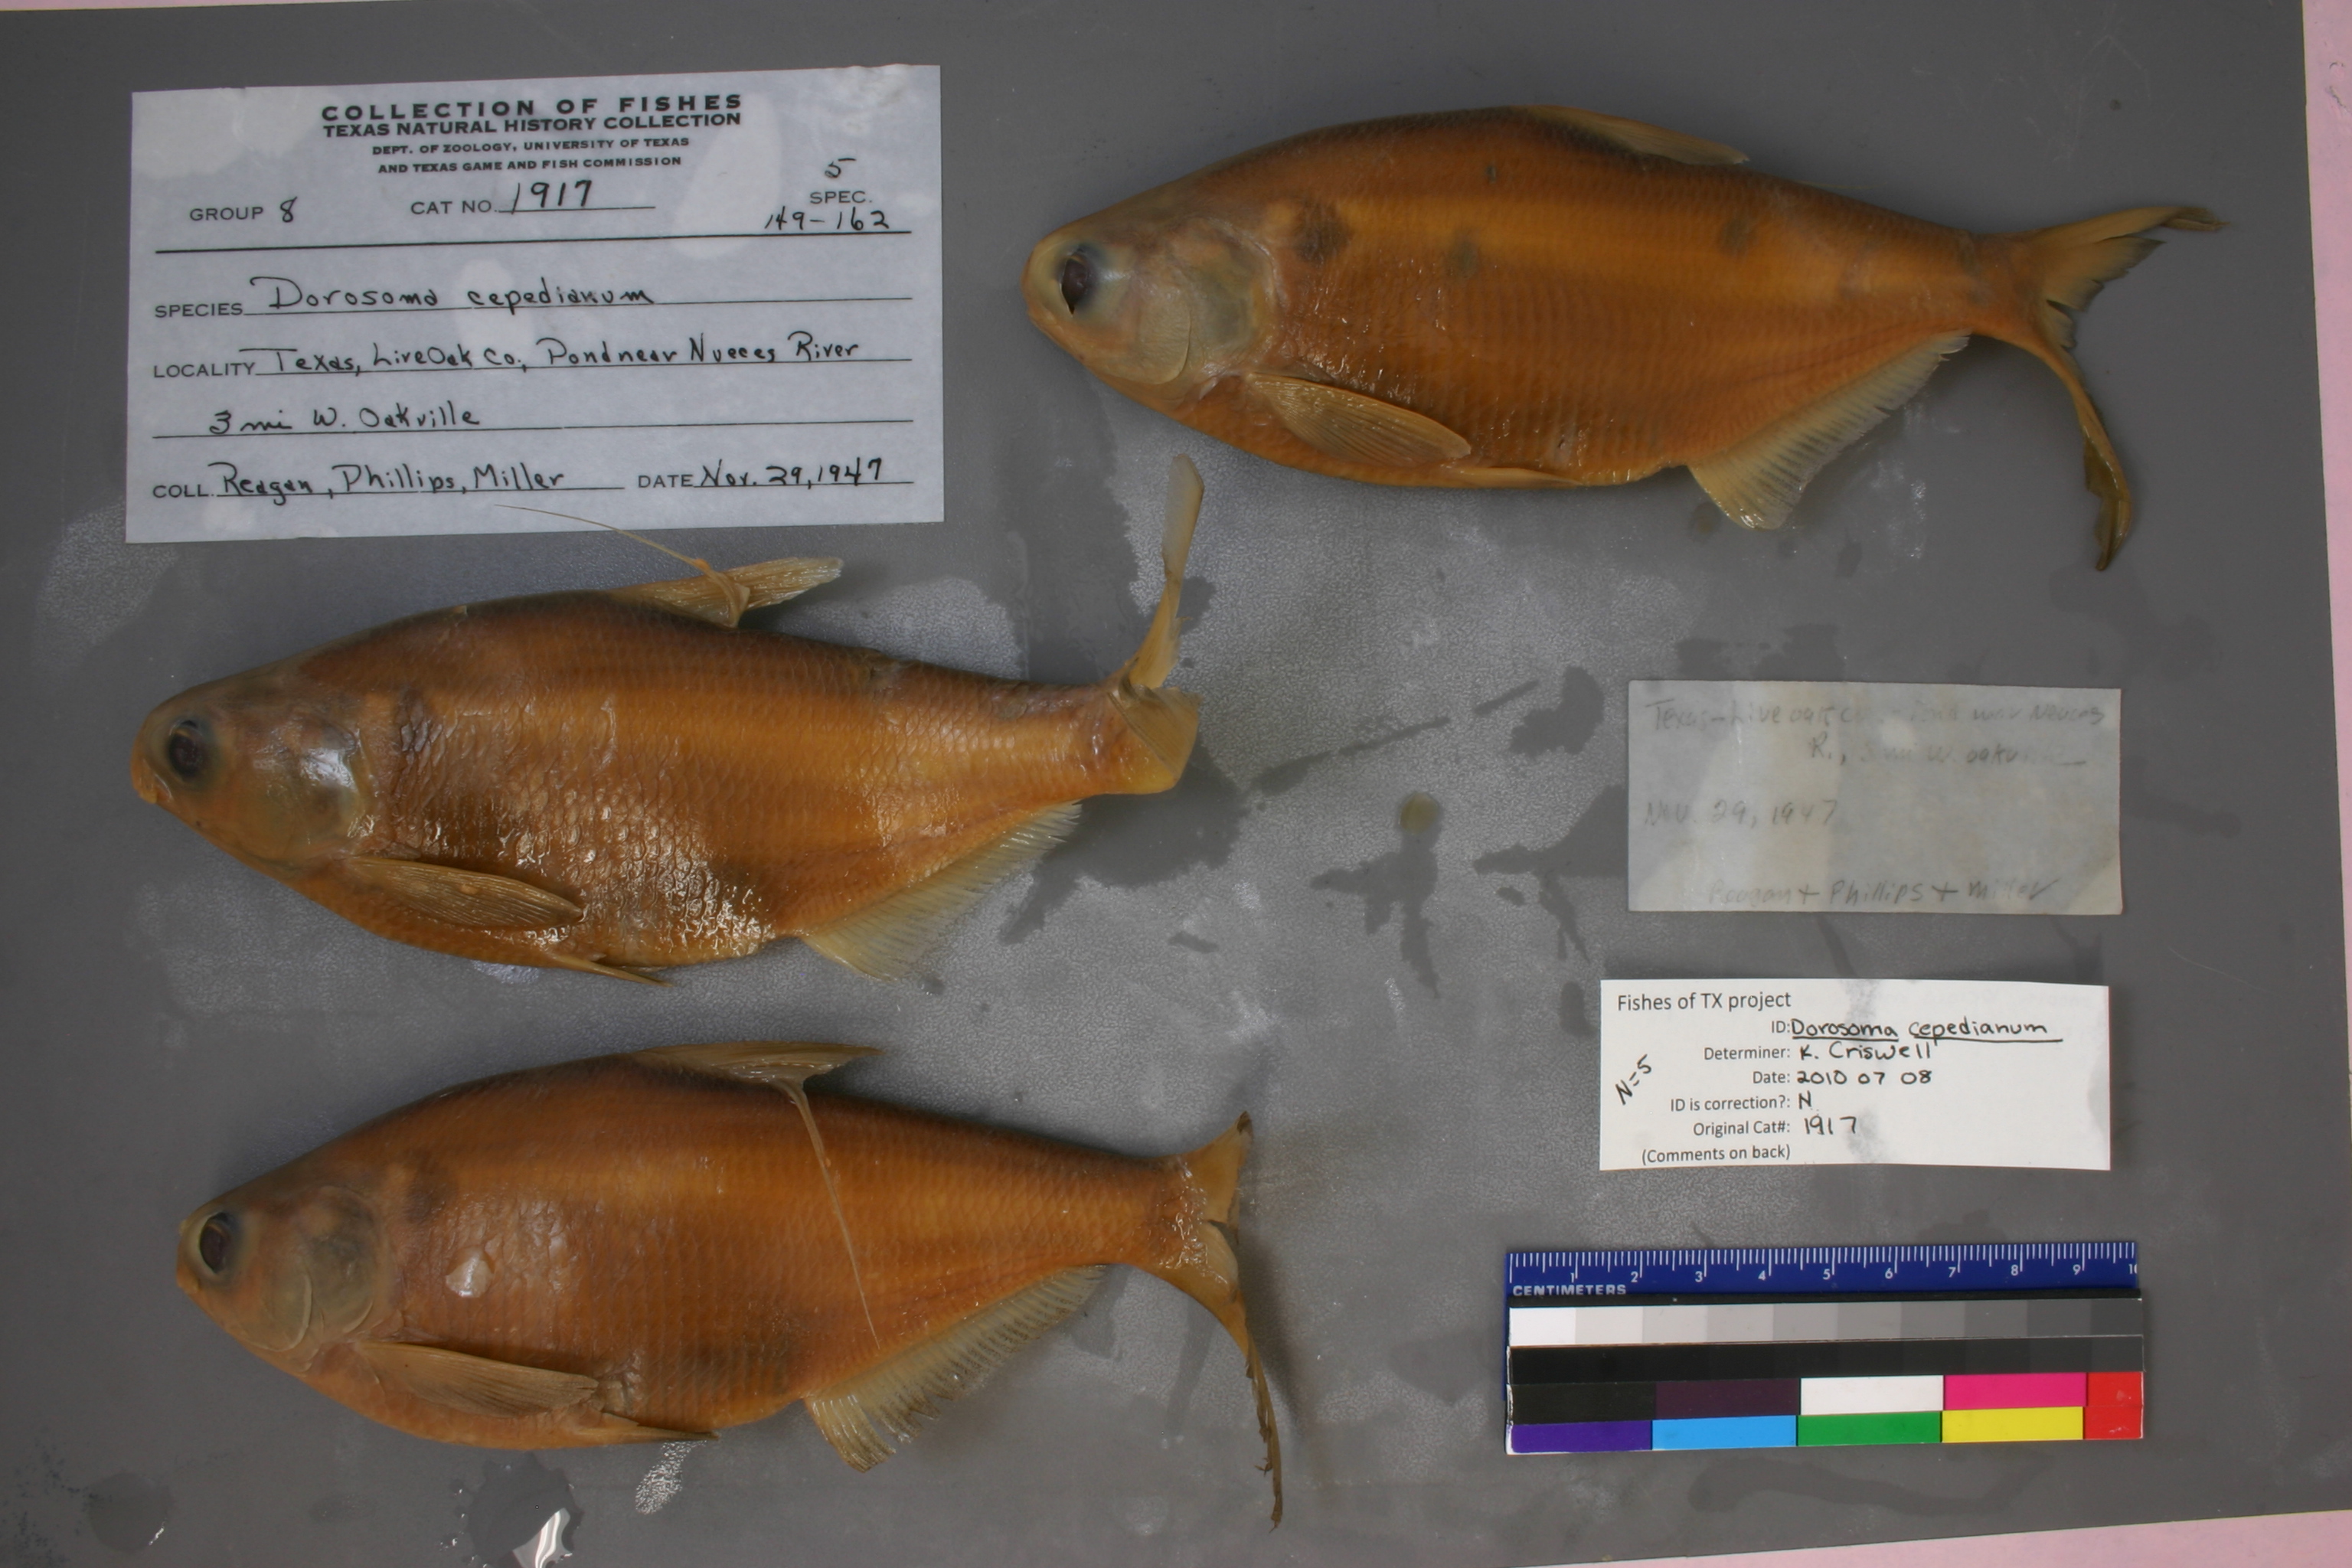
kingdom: Animalia
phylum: Chordata
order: Clupeiformes
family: Clupeidae
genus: Dorosoma
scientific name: Dorosoma cepedianum
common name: Gizzard shad
